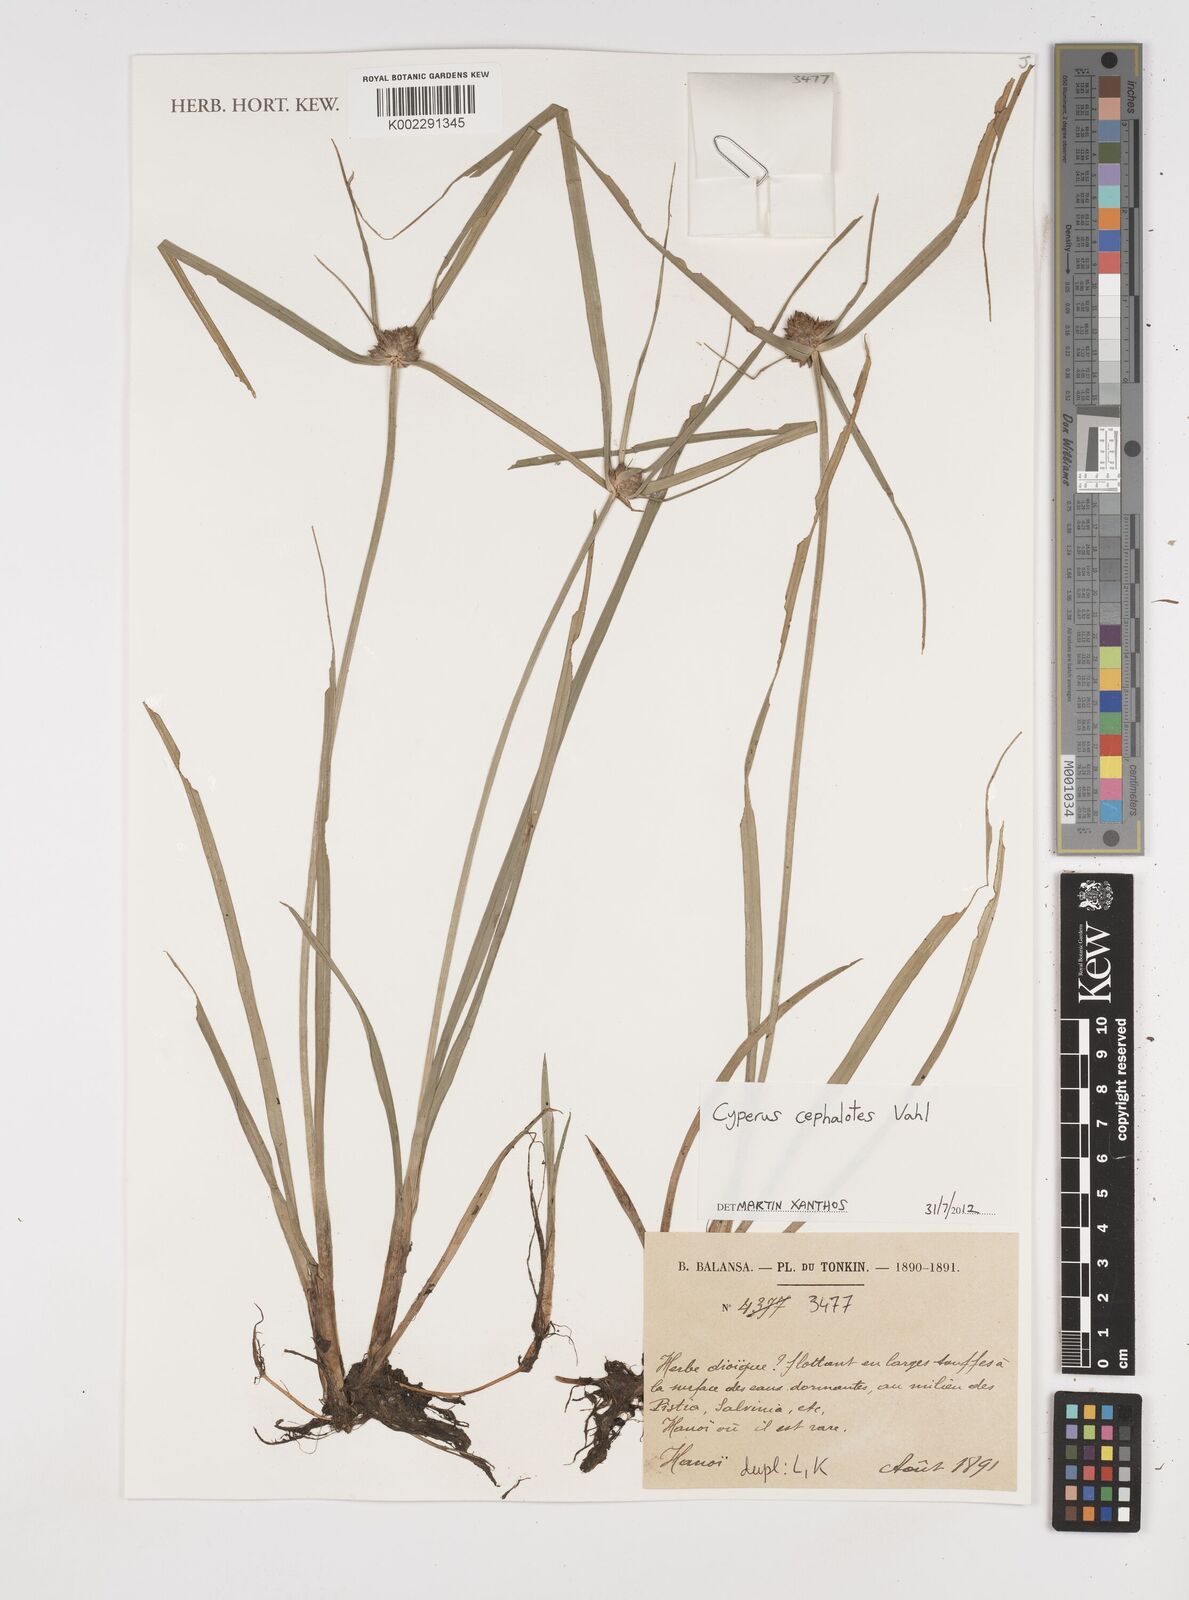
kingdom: Plantae
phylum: Tracheophyta
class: Liliopsida
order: Poales
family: Cyperaceae
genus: Cyperus
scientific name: Cyperus cephalotes
